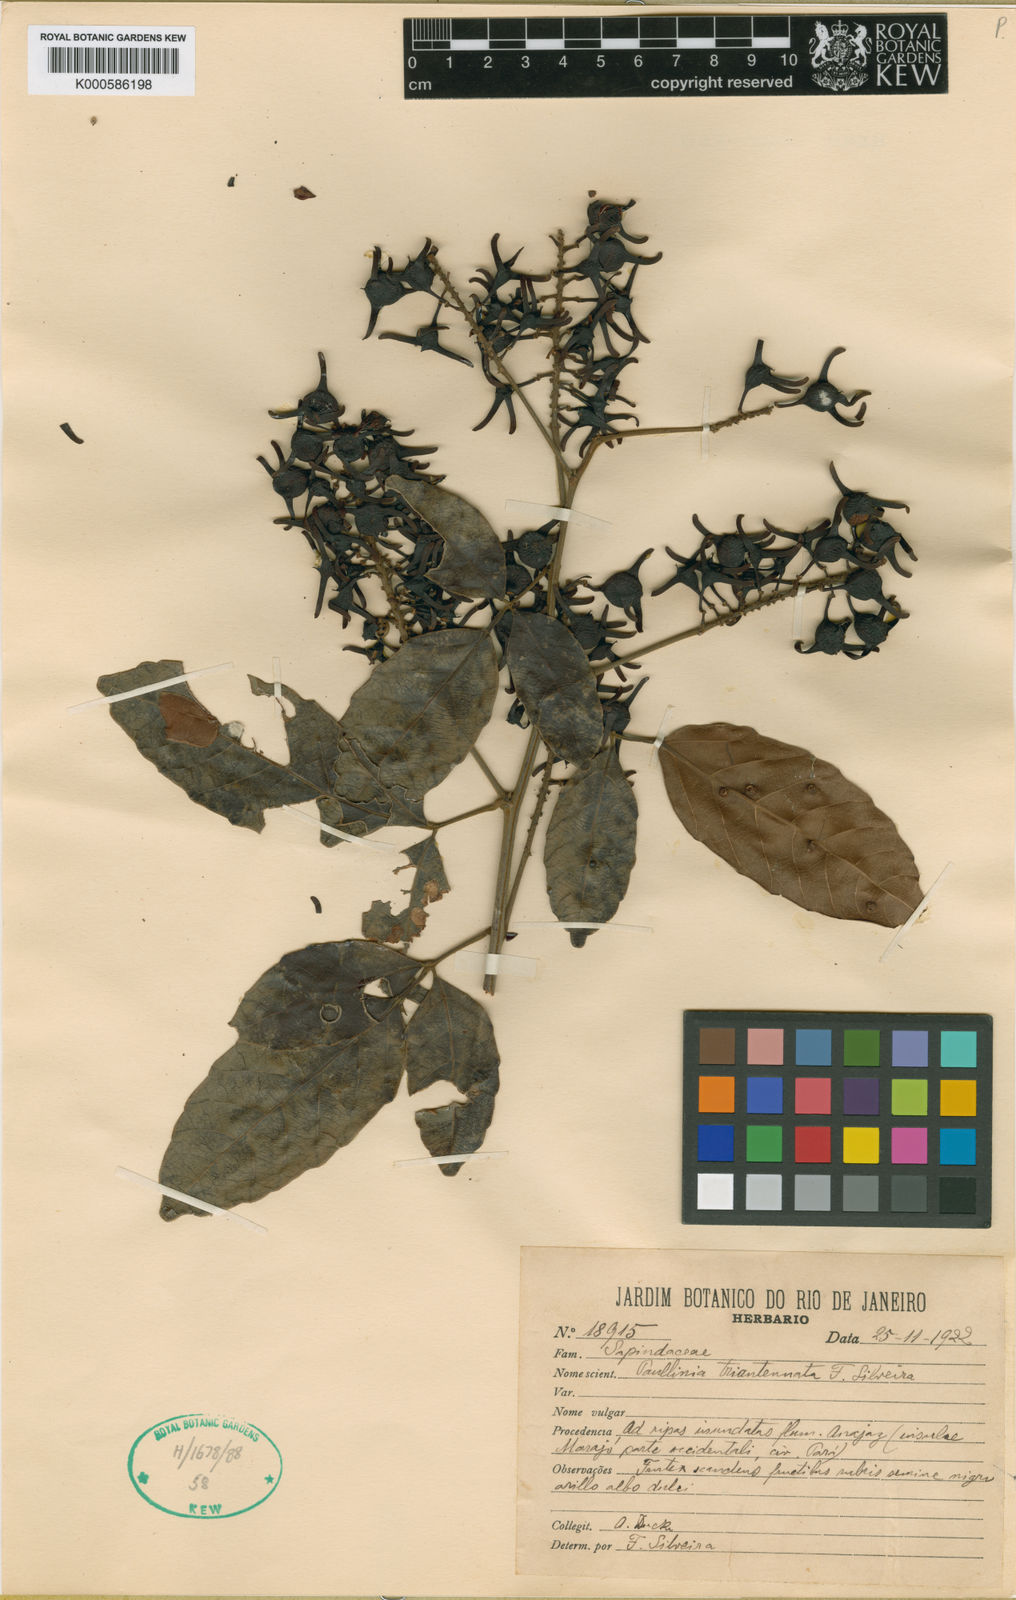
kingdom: Plantae
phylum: Tracheophyta
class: Magnoliopsida
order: Sapindales
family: Sapindaceae
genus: Paullinia
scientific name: Paullinia isoptera
